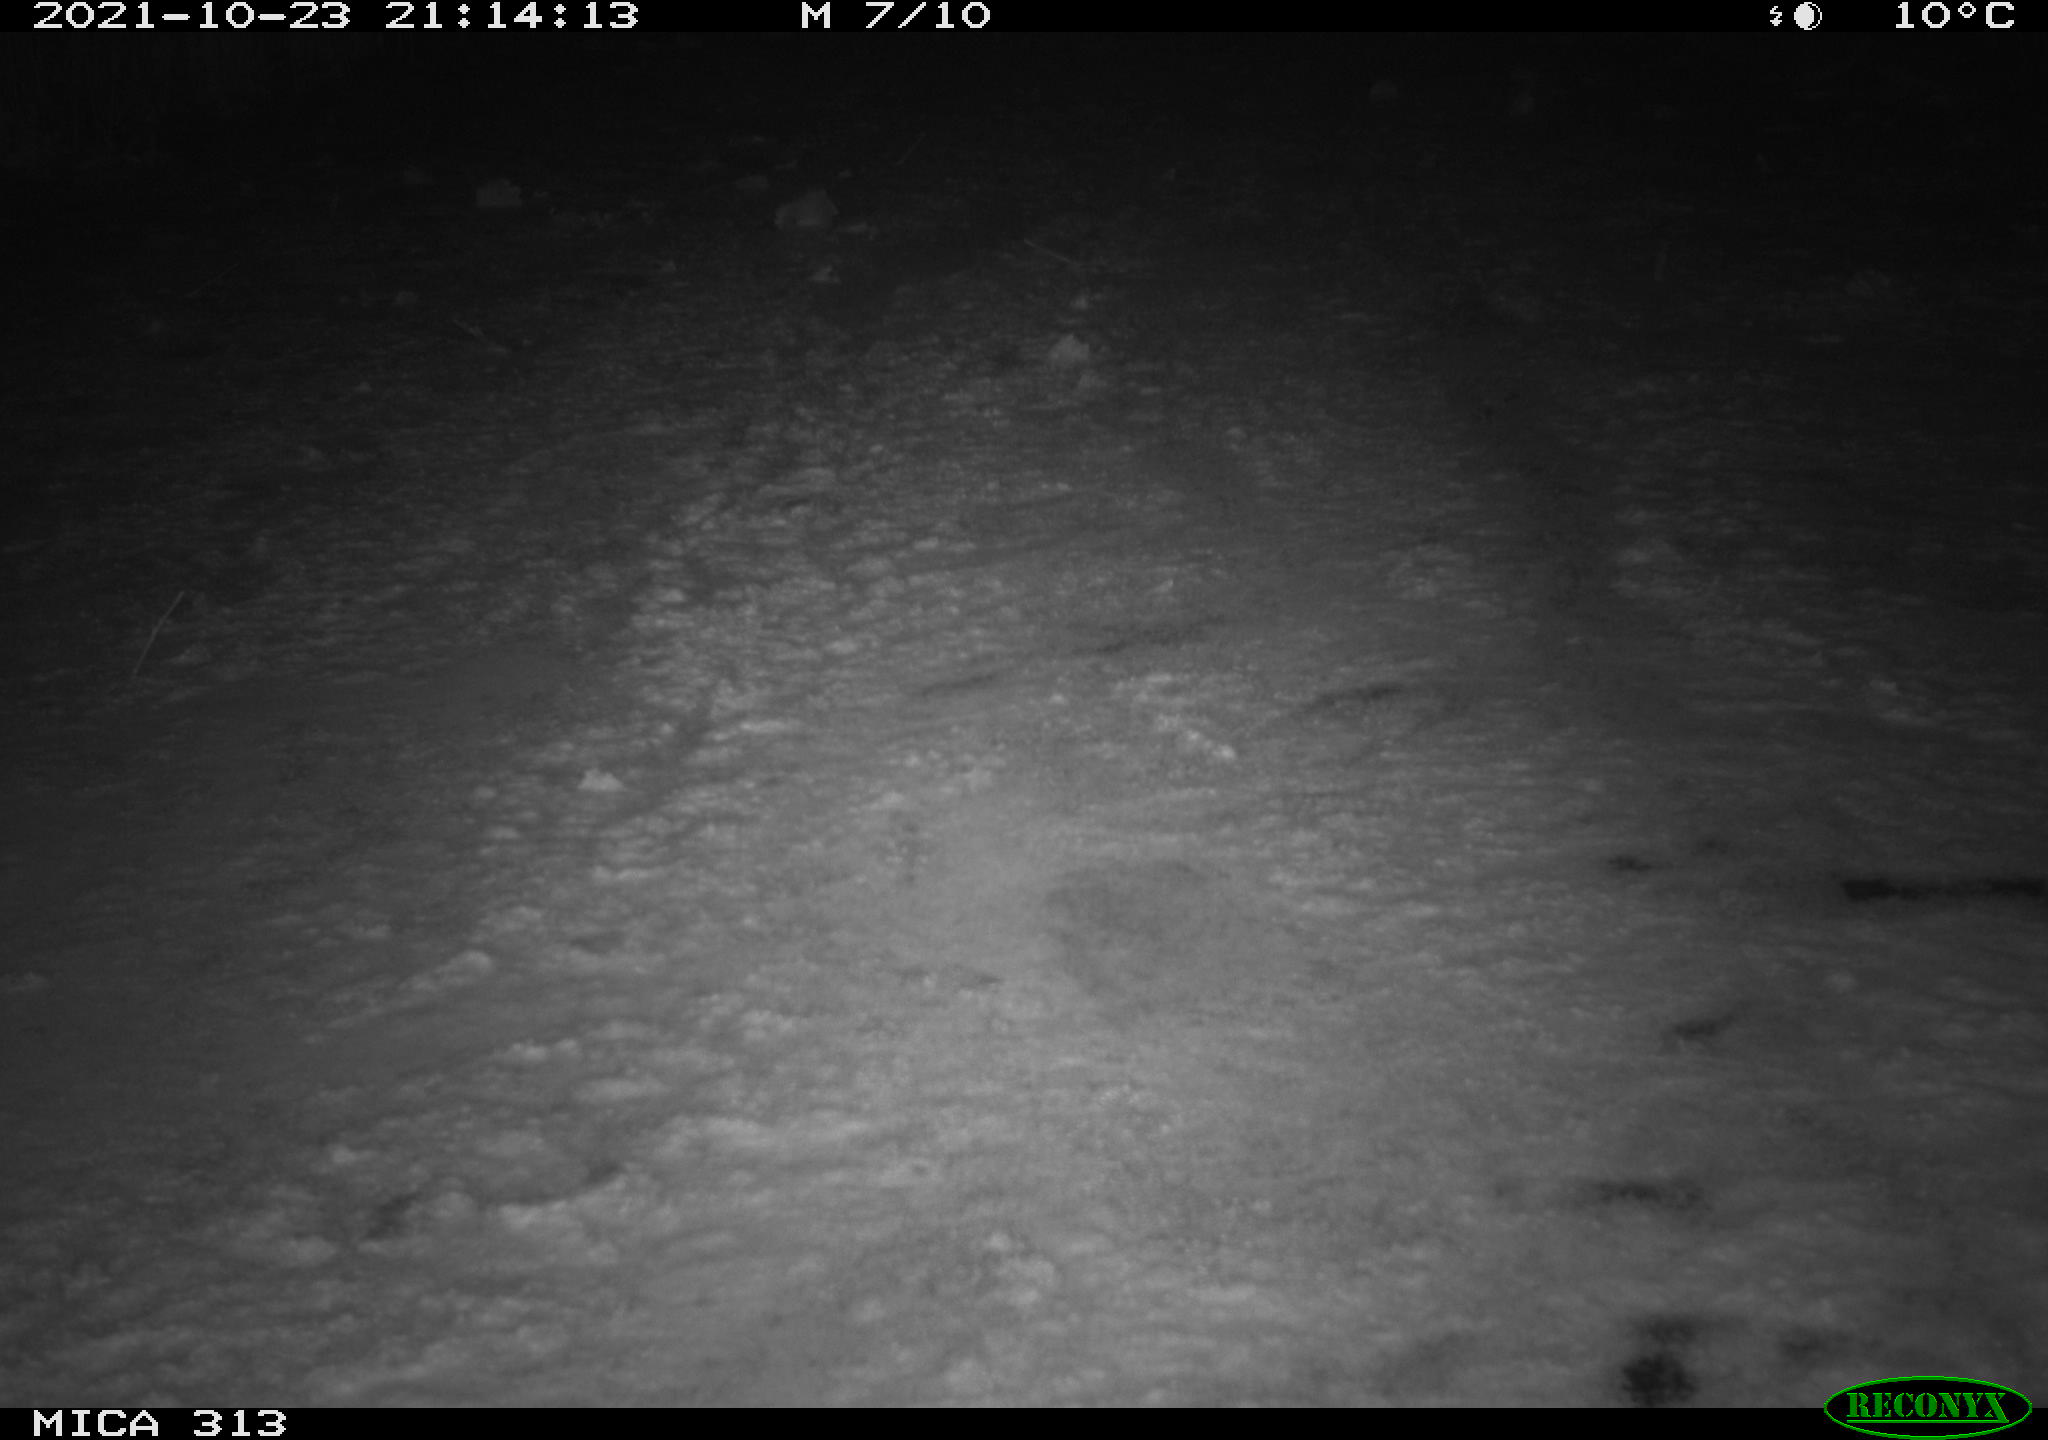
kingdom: Animalia
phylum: Chordata
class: Aves
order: Gruiformes
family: Rallidae
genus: Gallinula
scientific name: Gallinula chloropus
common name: Common moorhen
